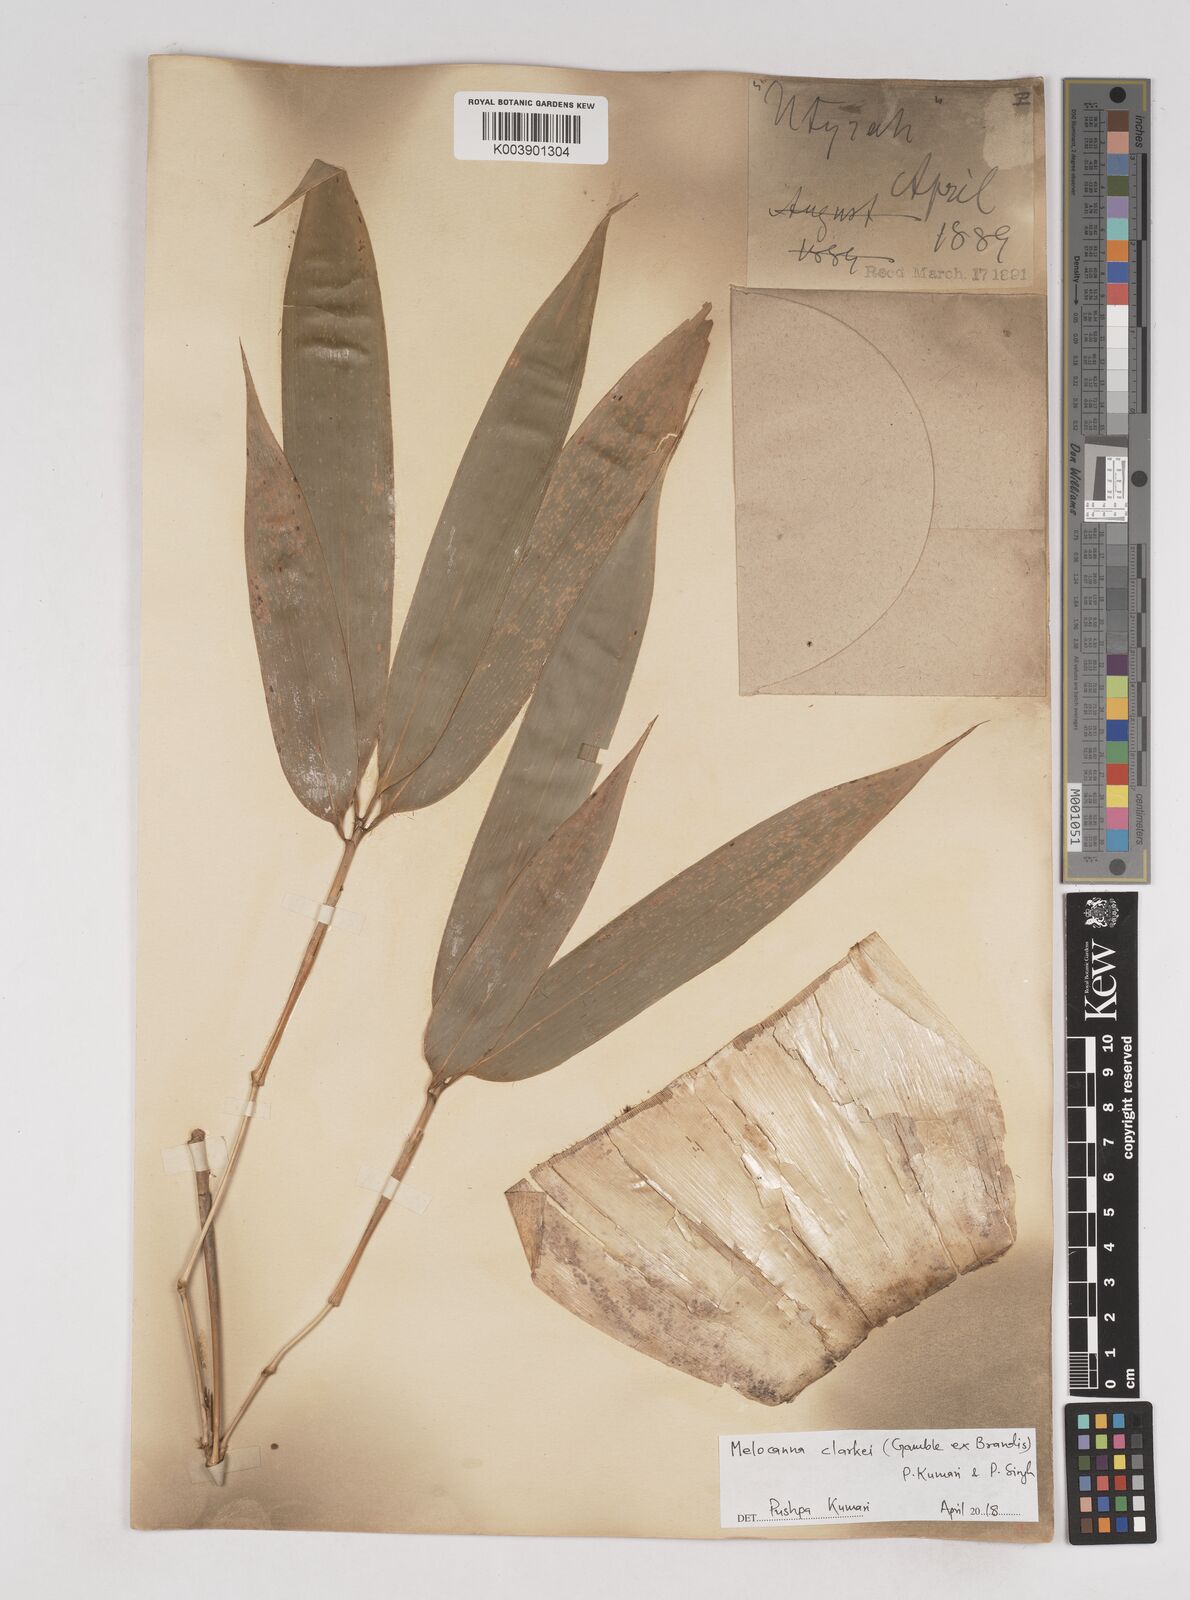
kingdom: Plantae
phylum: Tracheophyta
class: Liliopsida
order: Poales
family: Poaceae
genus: Melocanna
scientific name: Melocanna clarkei
